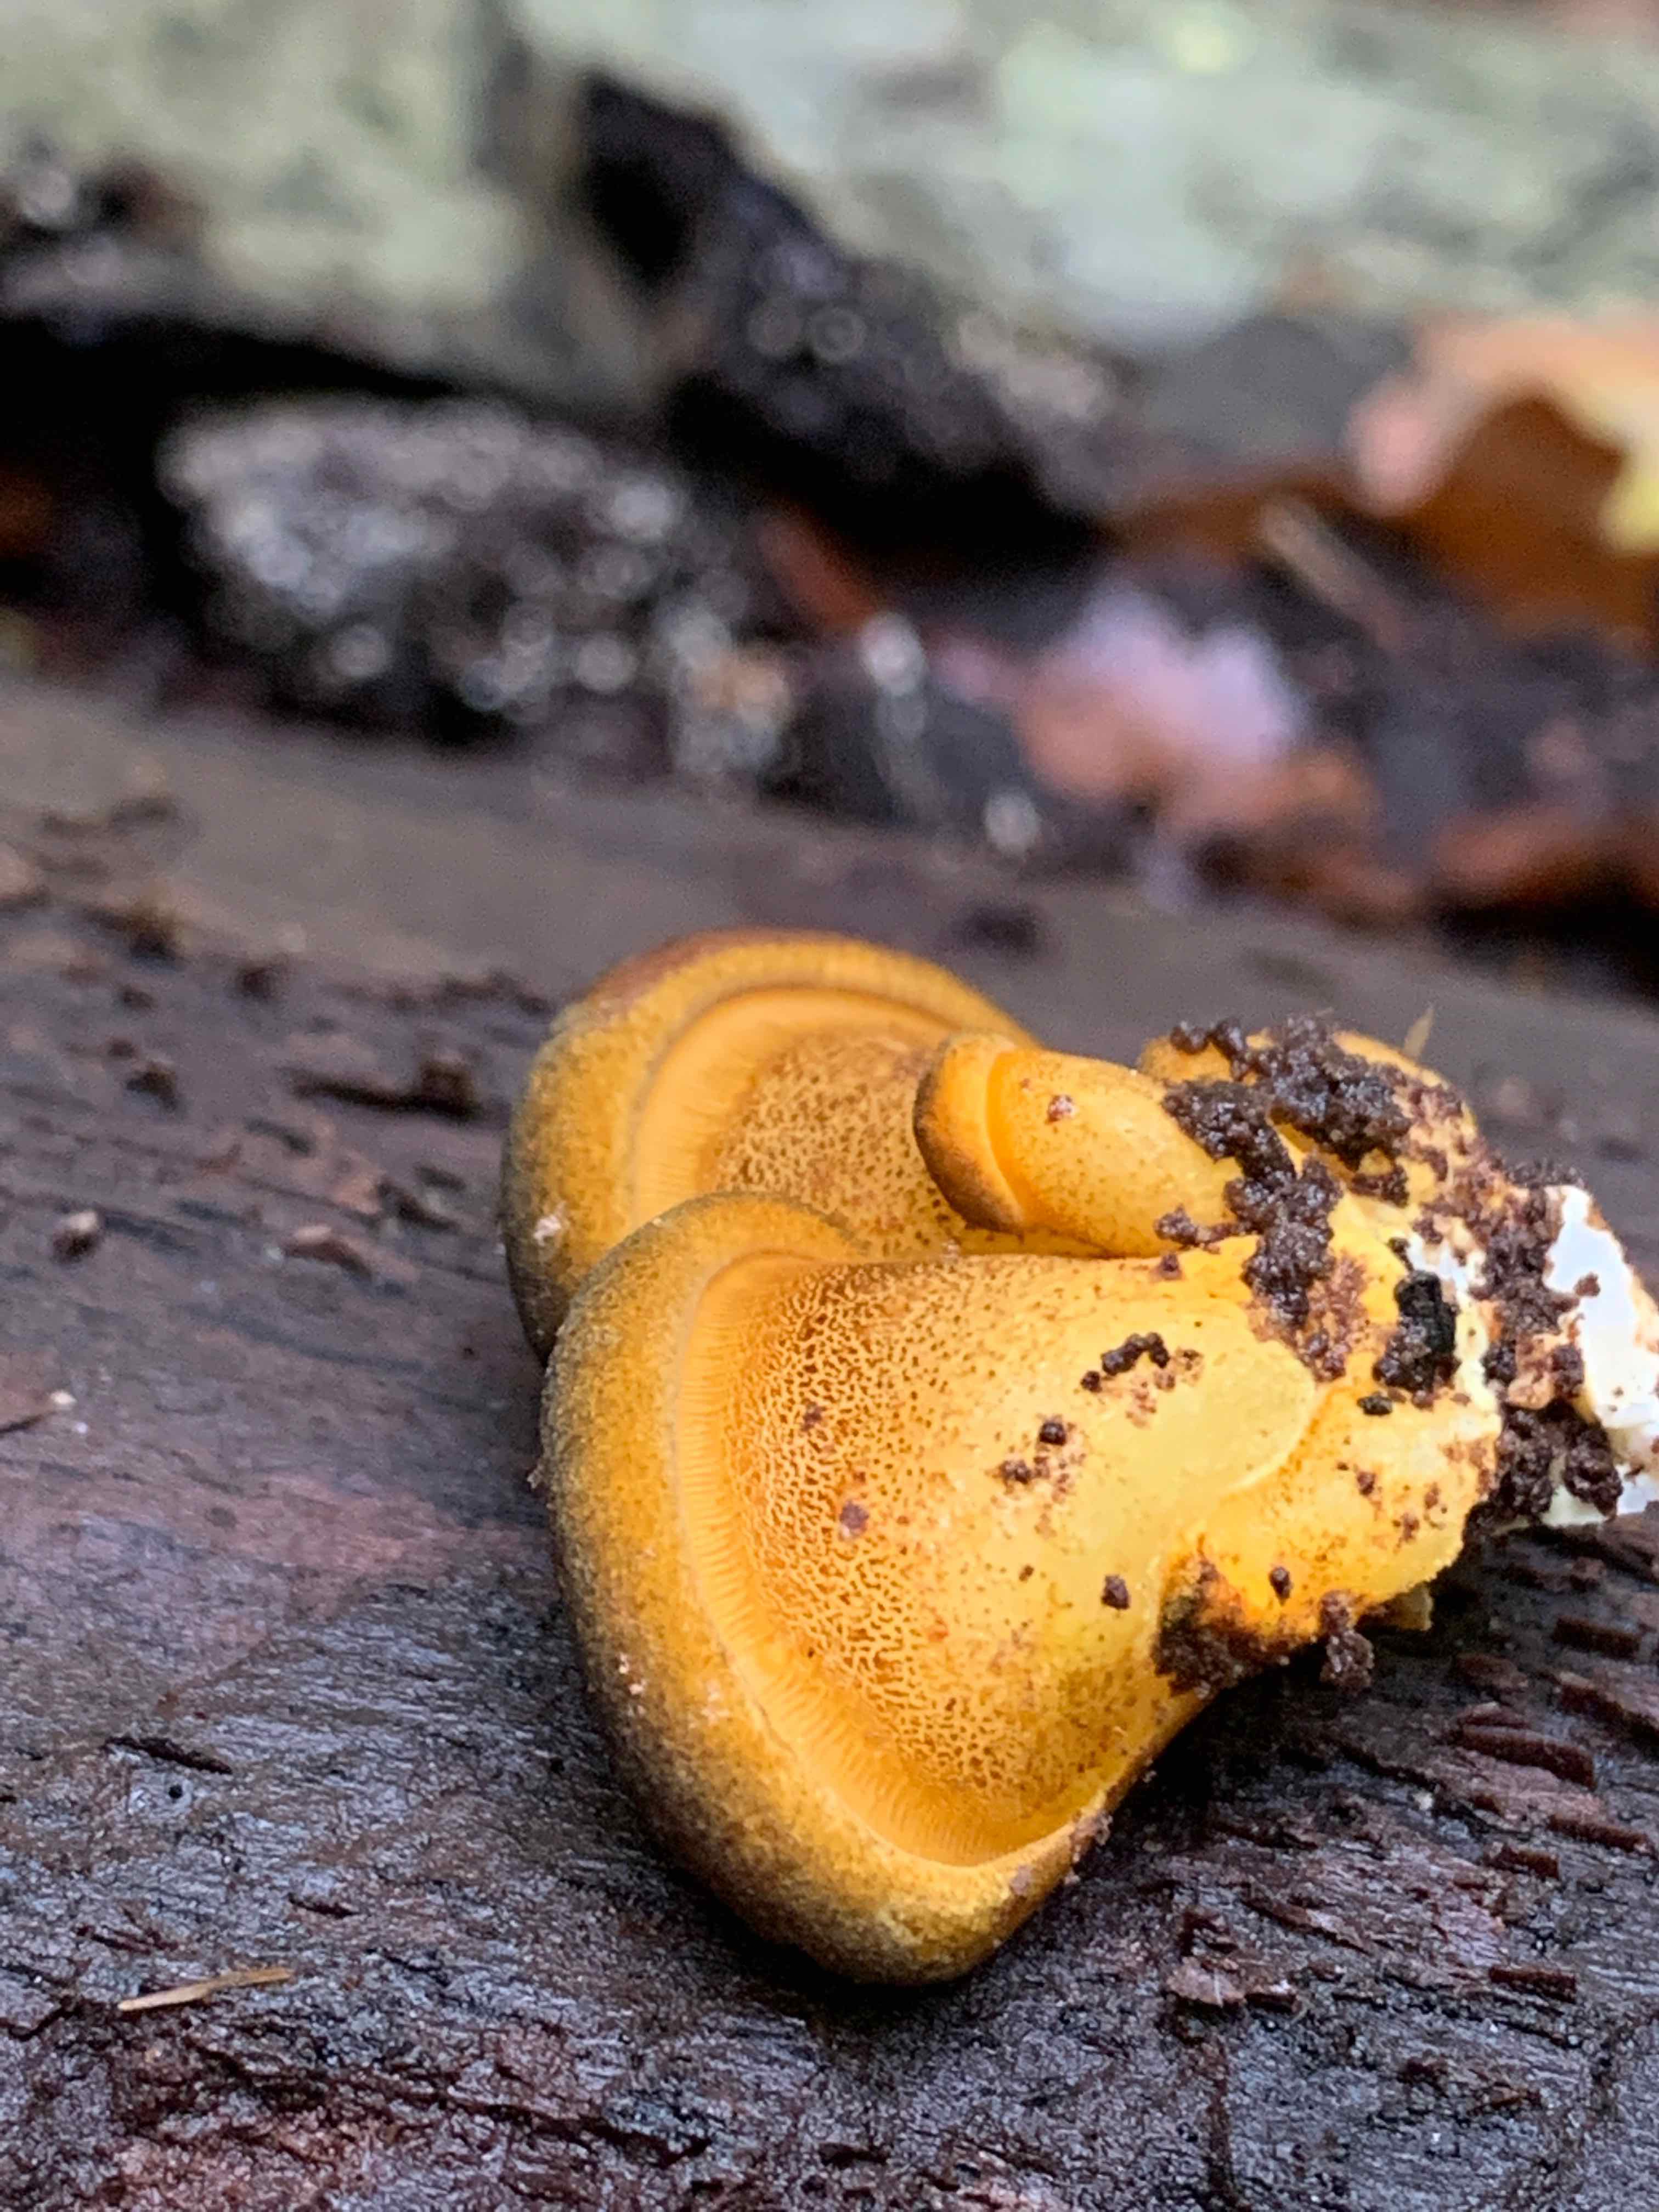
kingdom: Fungi
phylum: Basidiomycota
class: Agaricomycetes
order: Agaricales
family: Sarcomyxaceae
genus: Sarcomyxa
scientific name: Sarcomyxa serotina
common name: gummihat
